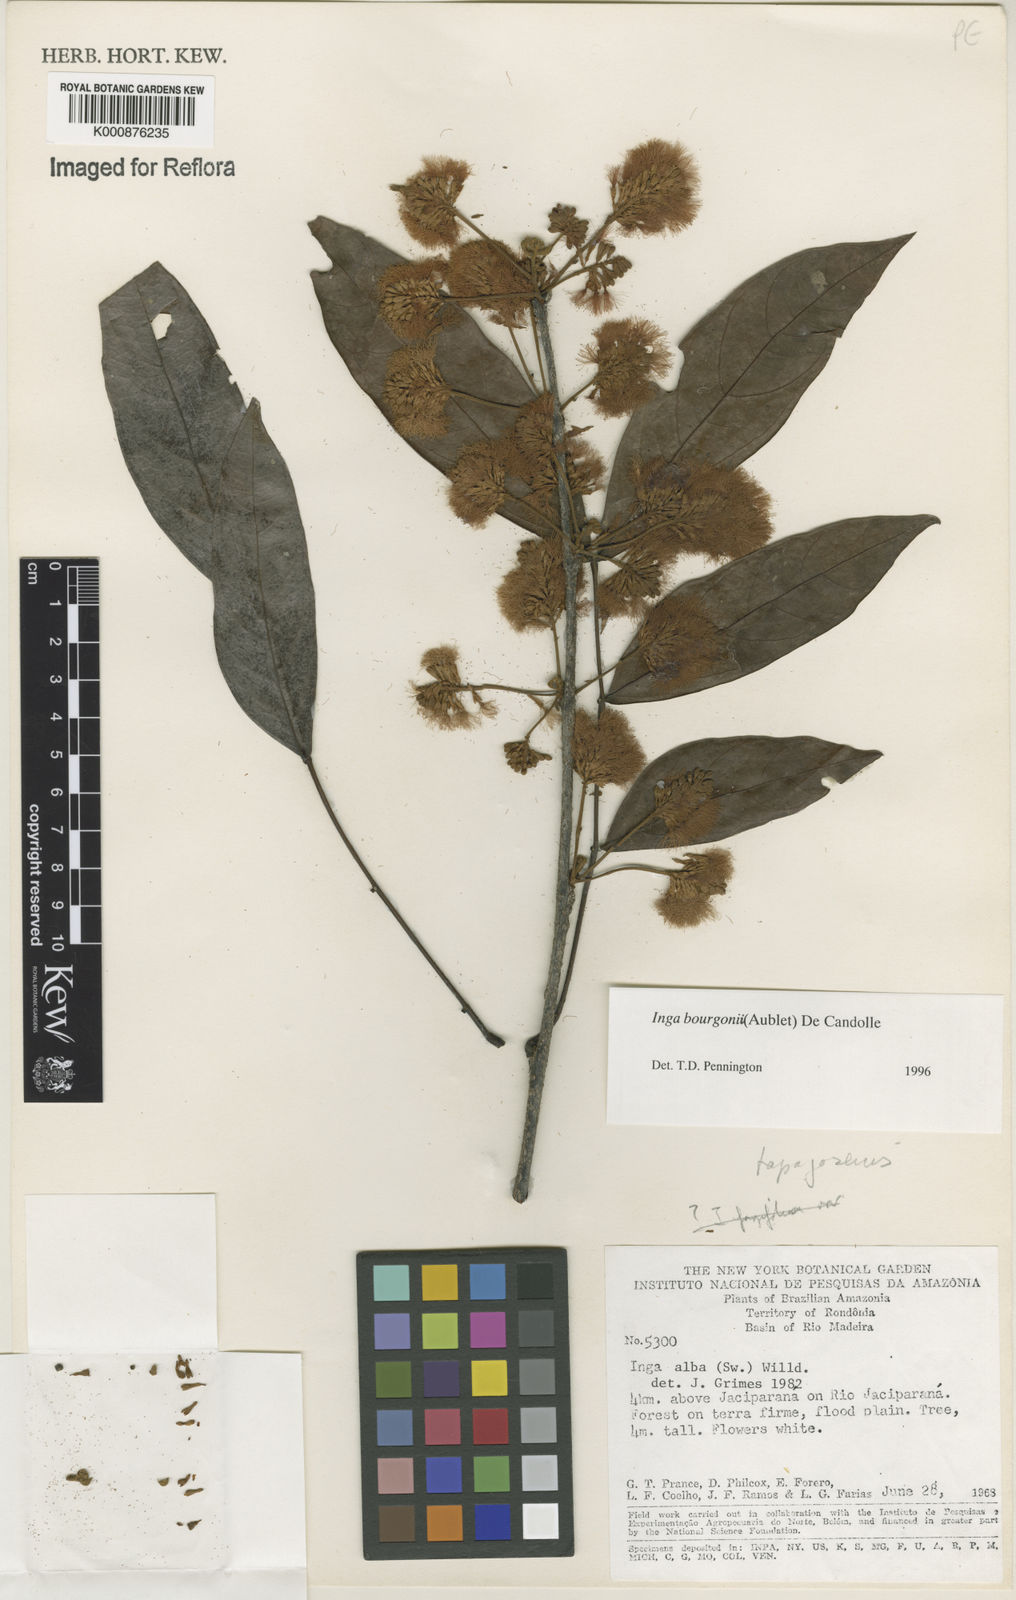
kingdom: Plantae
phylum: Tracheophyta
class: Magnoliopsida
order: Fabales
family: Fabaceae
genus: Inga
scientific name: Inga bourgoni
